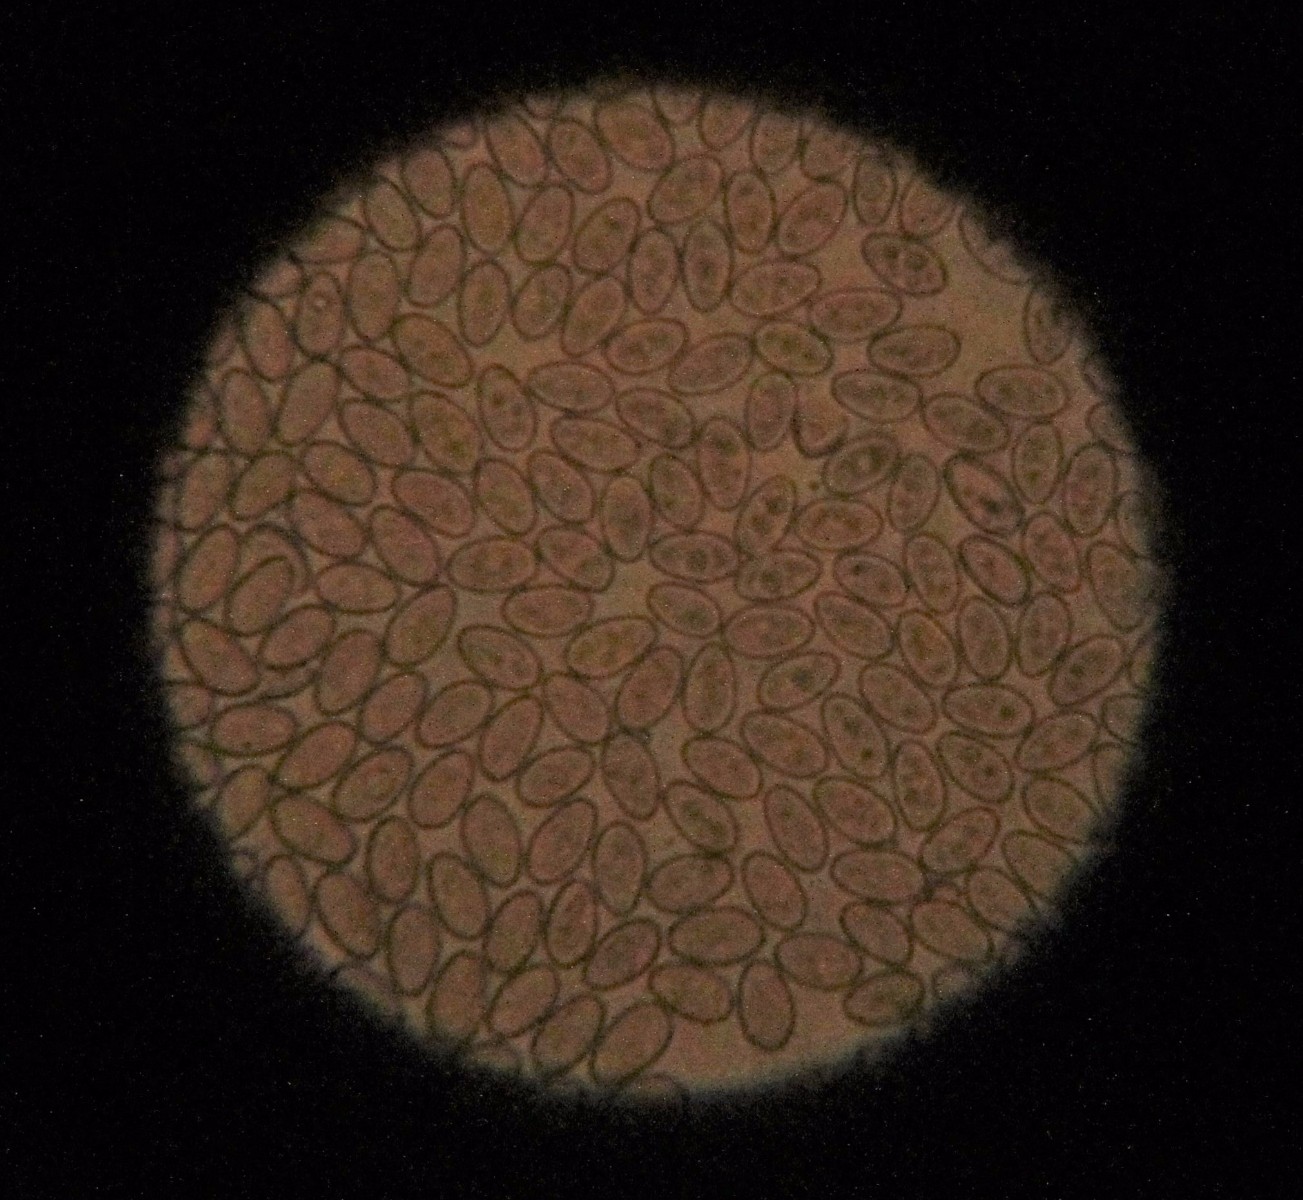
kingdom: Fungi
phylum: Basidiomycota
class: Agaricomycetes
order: Agaricales
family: Strophariaceae
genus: Hypholoma
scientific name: Hypholoma
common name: svovlhat
